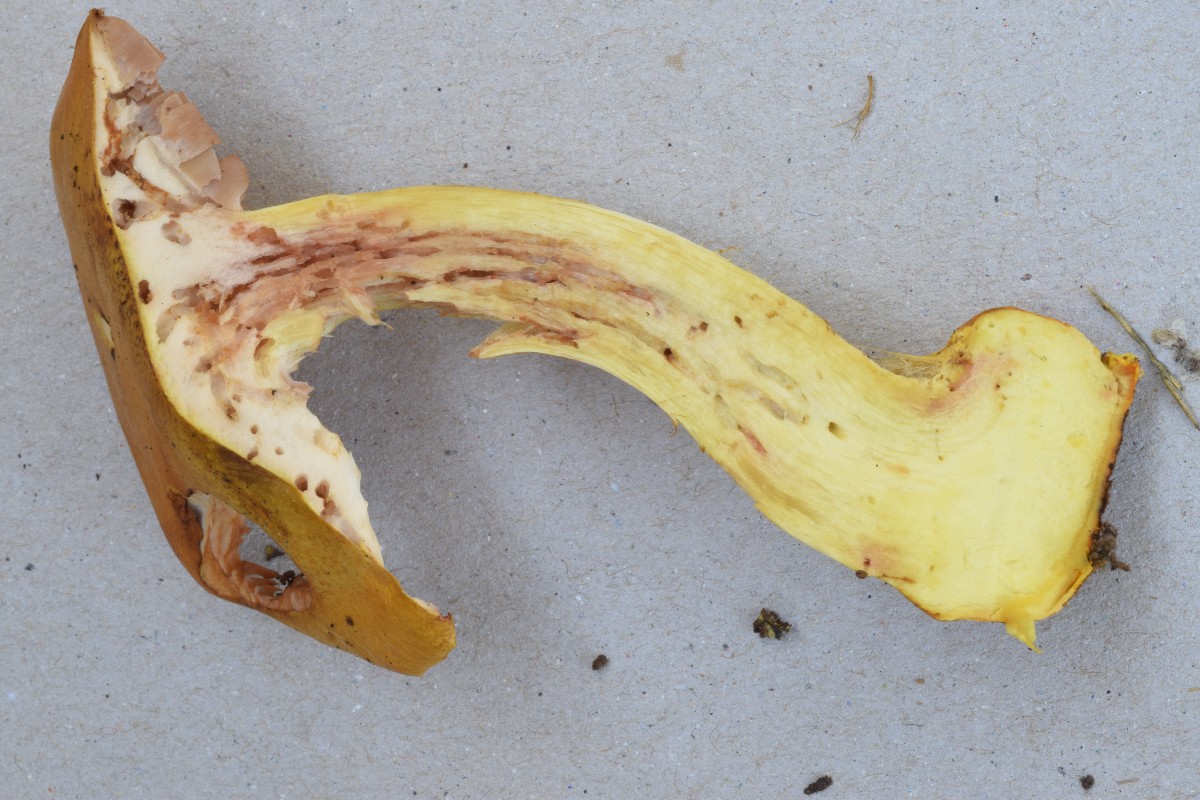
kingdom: Fungi
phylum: Basidiomycota
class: Agaricomycetes
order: Agaricales
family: Cortinariaceae
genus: Cortinarius
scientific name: Cortinarius prodigiosus
